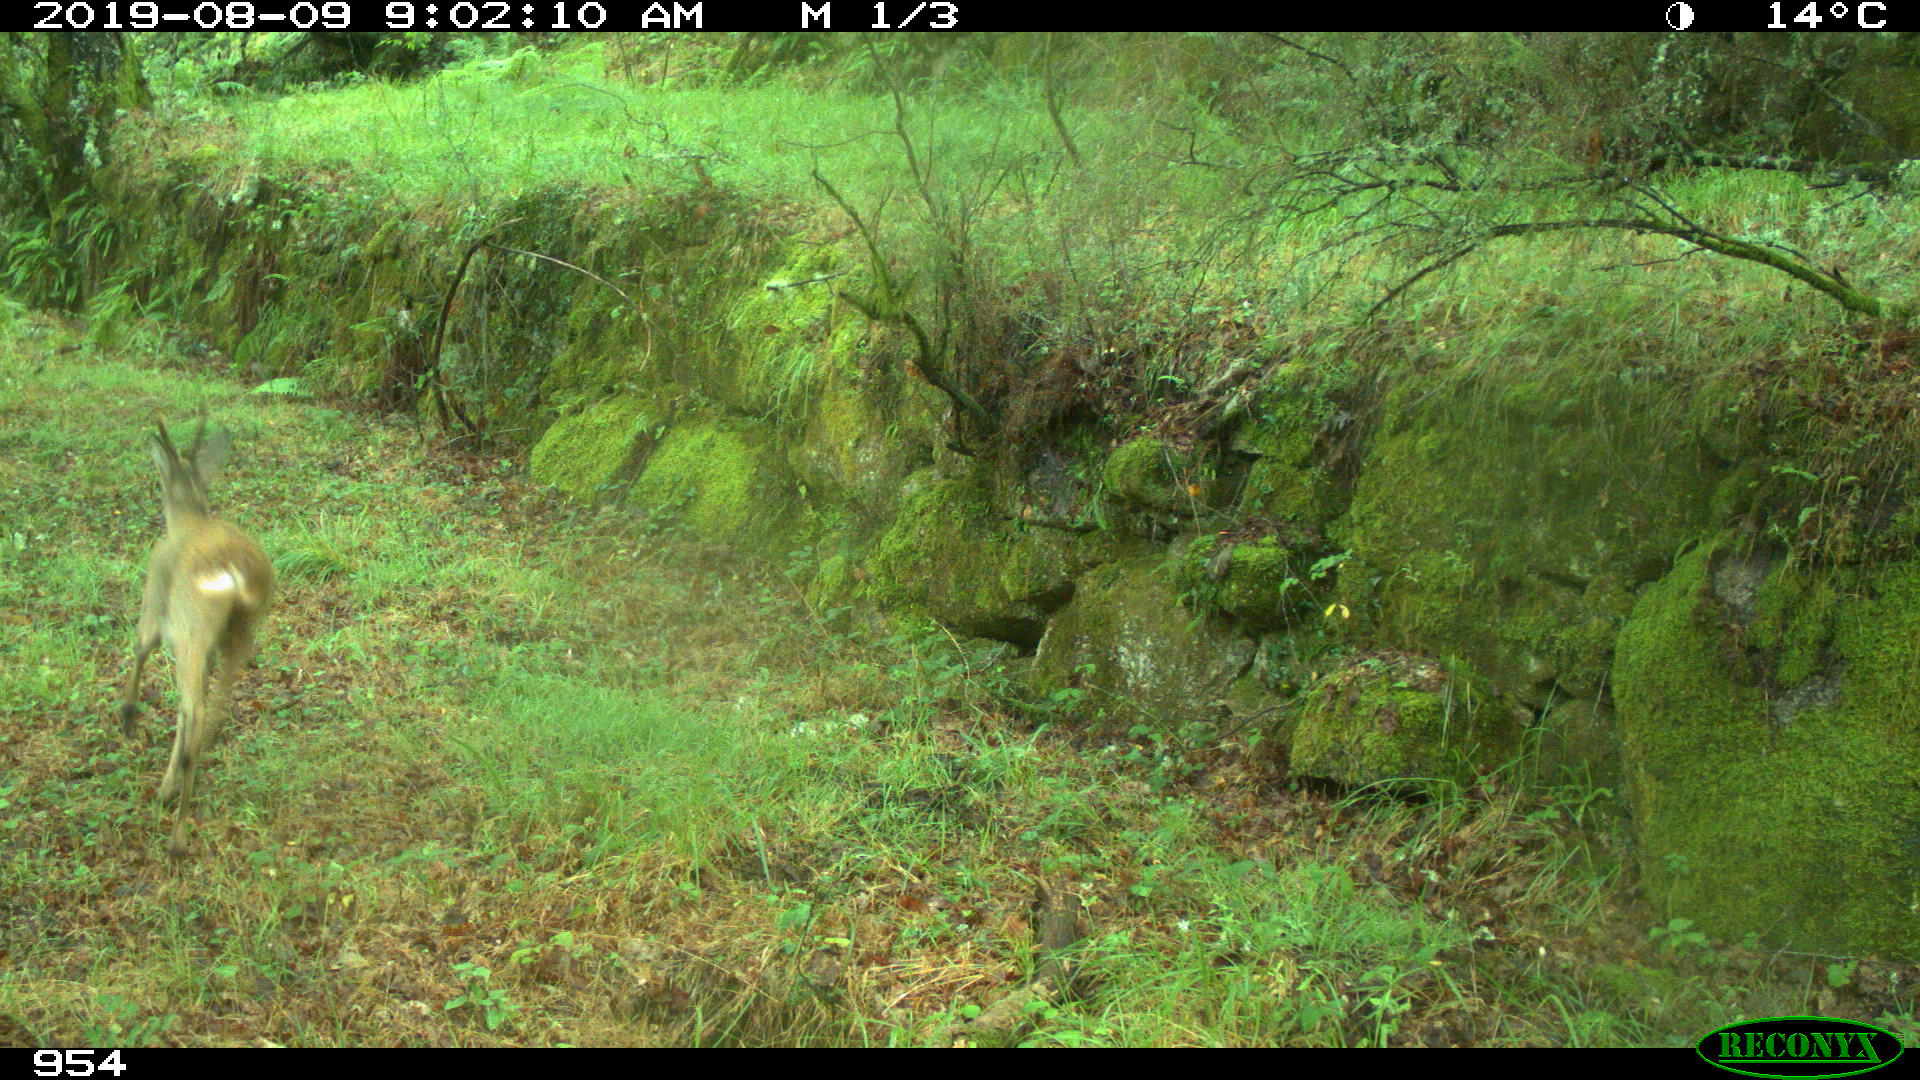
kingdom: Animalia
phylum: Chordata
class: Mammalia
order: Artiodactyla
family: Cervidae
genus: Capreolus
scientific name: Capreolus capreolus
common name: Western roe deer
